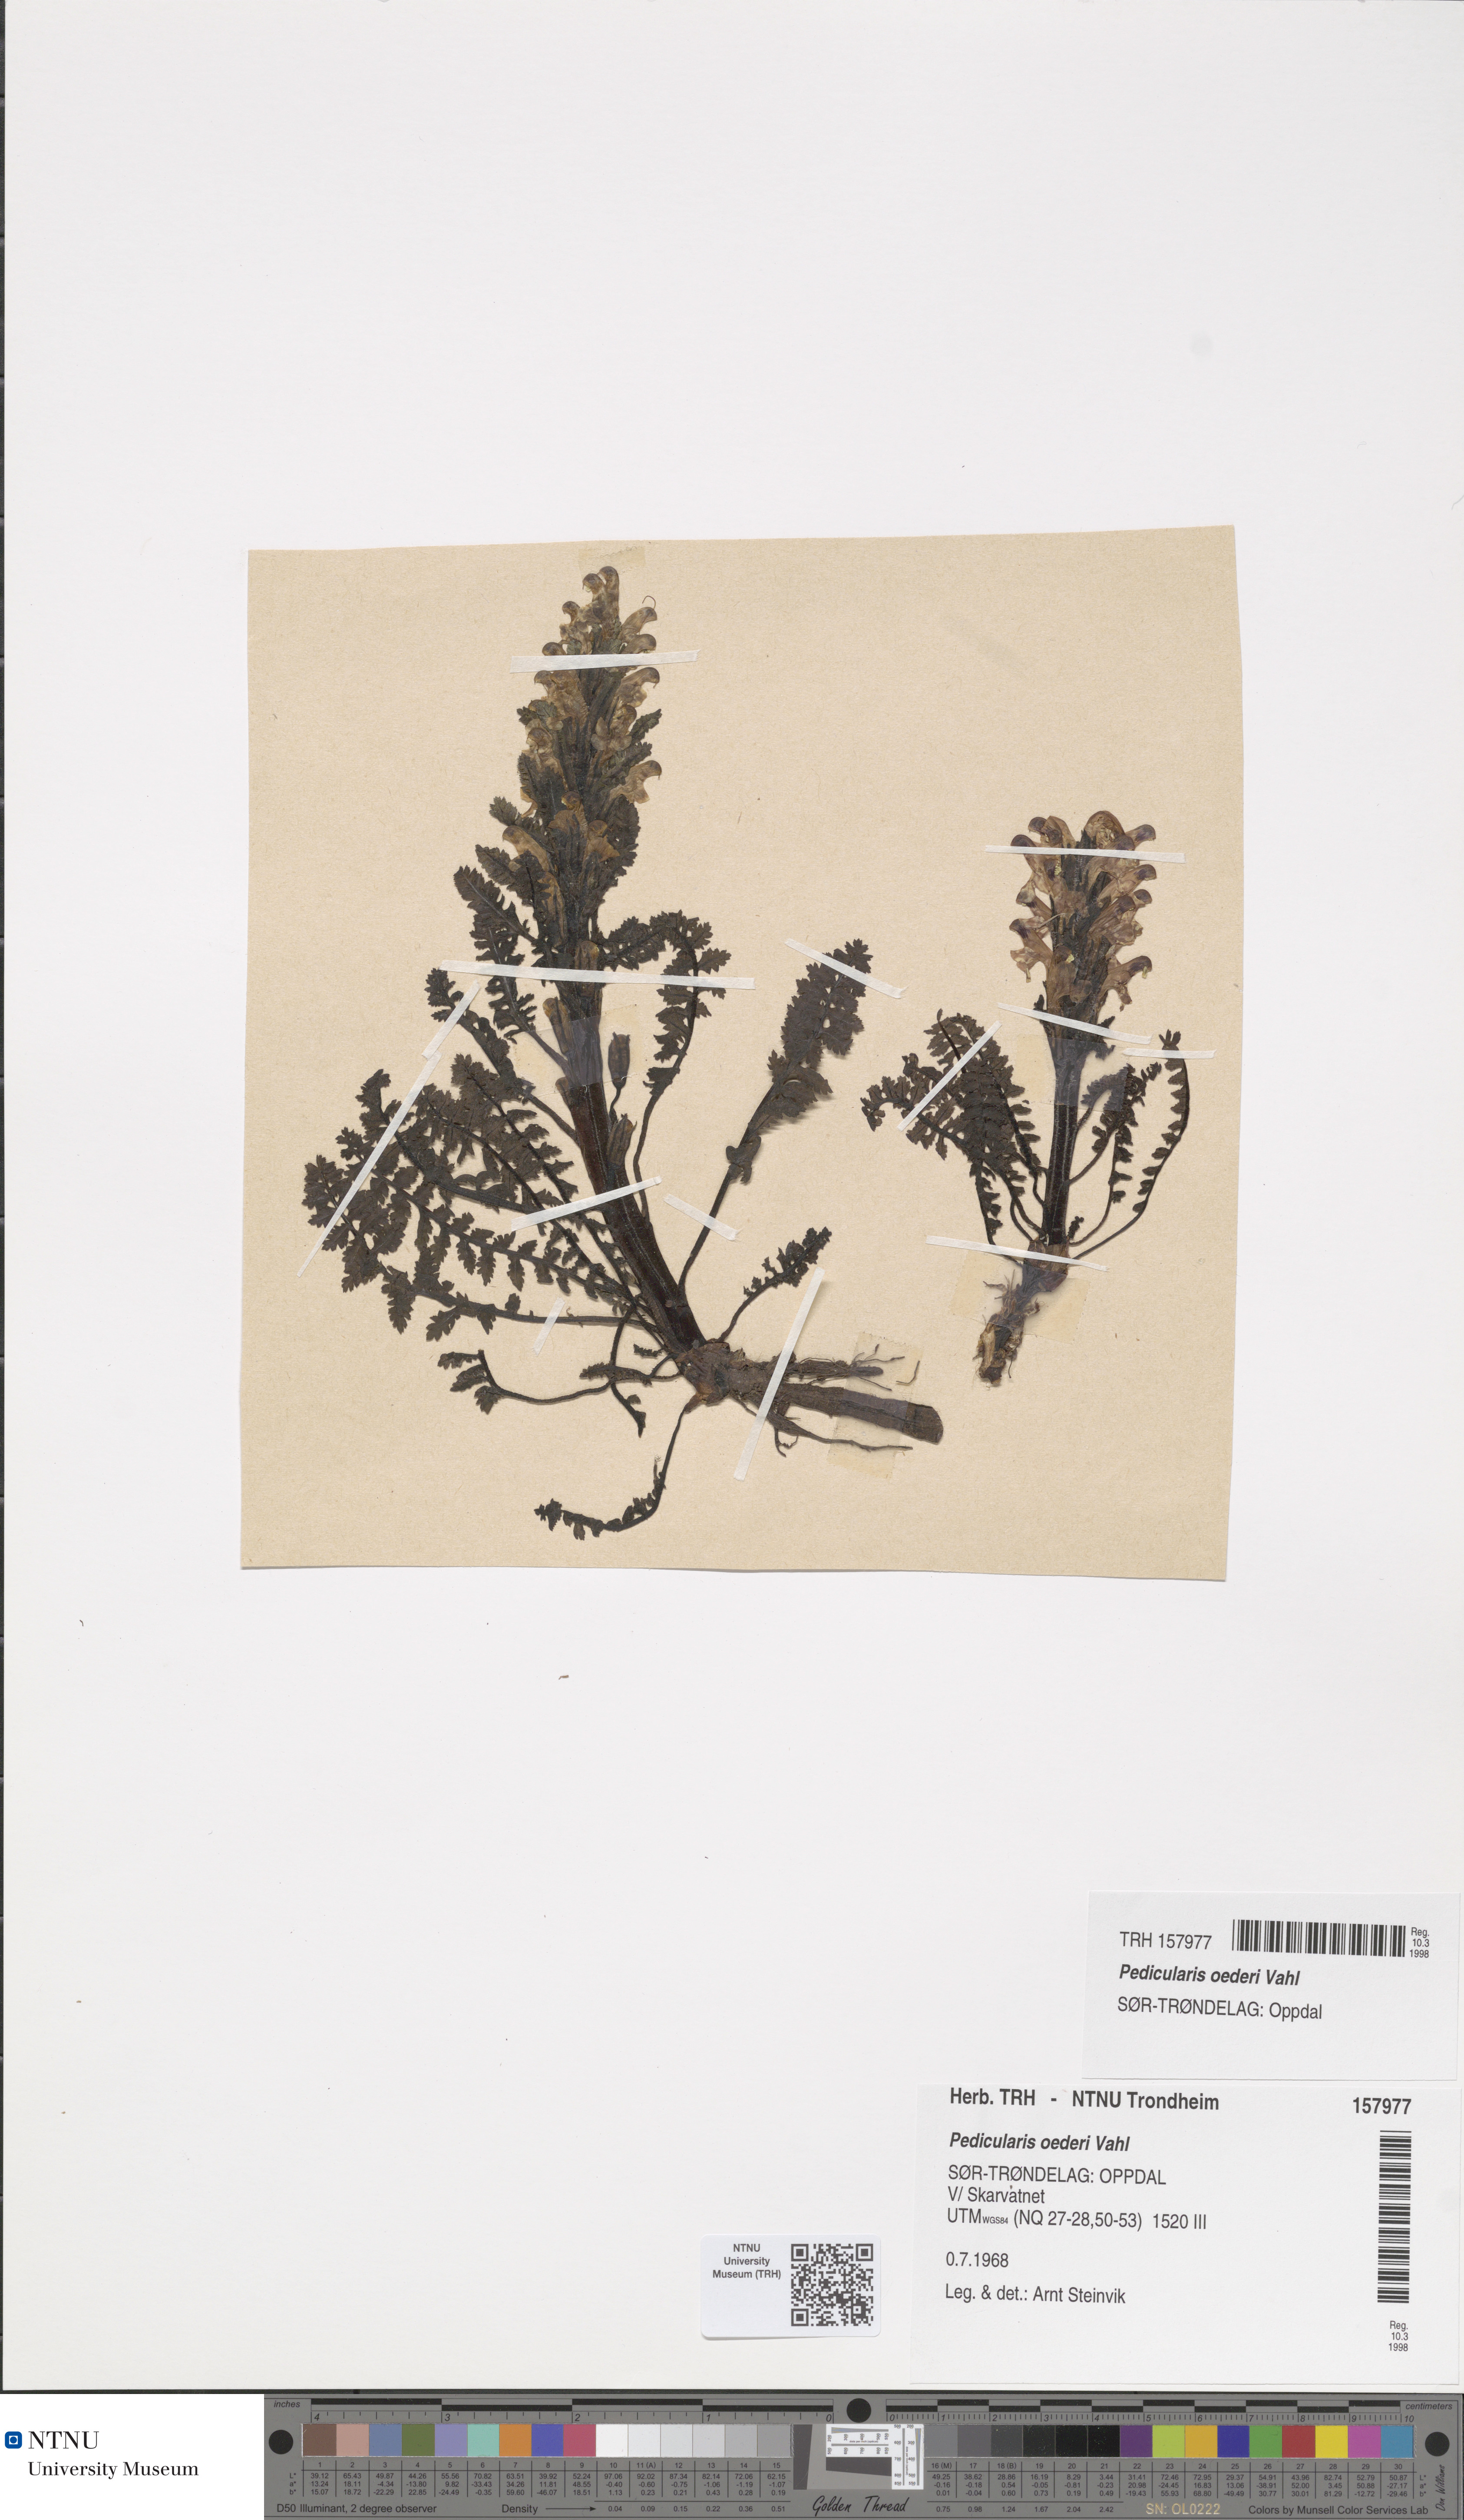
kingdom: Plantae
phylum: Tracheophyta
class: Magnoliopsida
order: Lamiales
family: Orobanchaceae
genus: Pedicularis
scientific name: Pedicularis oederi
